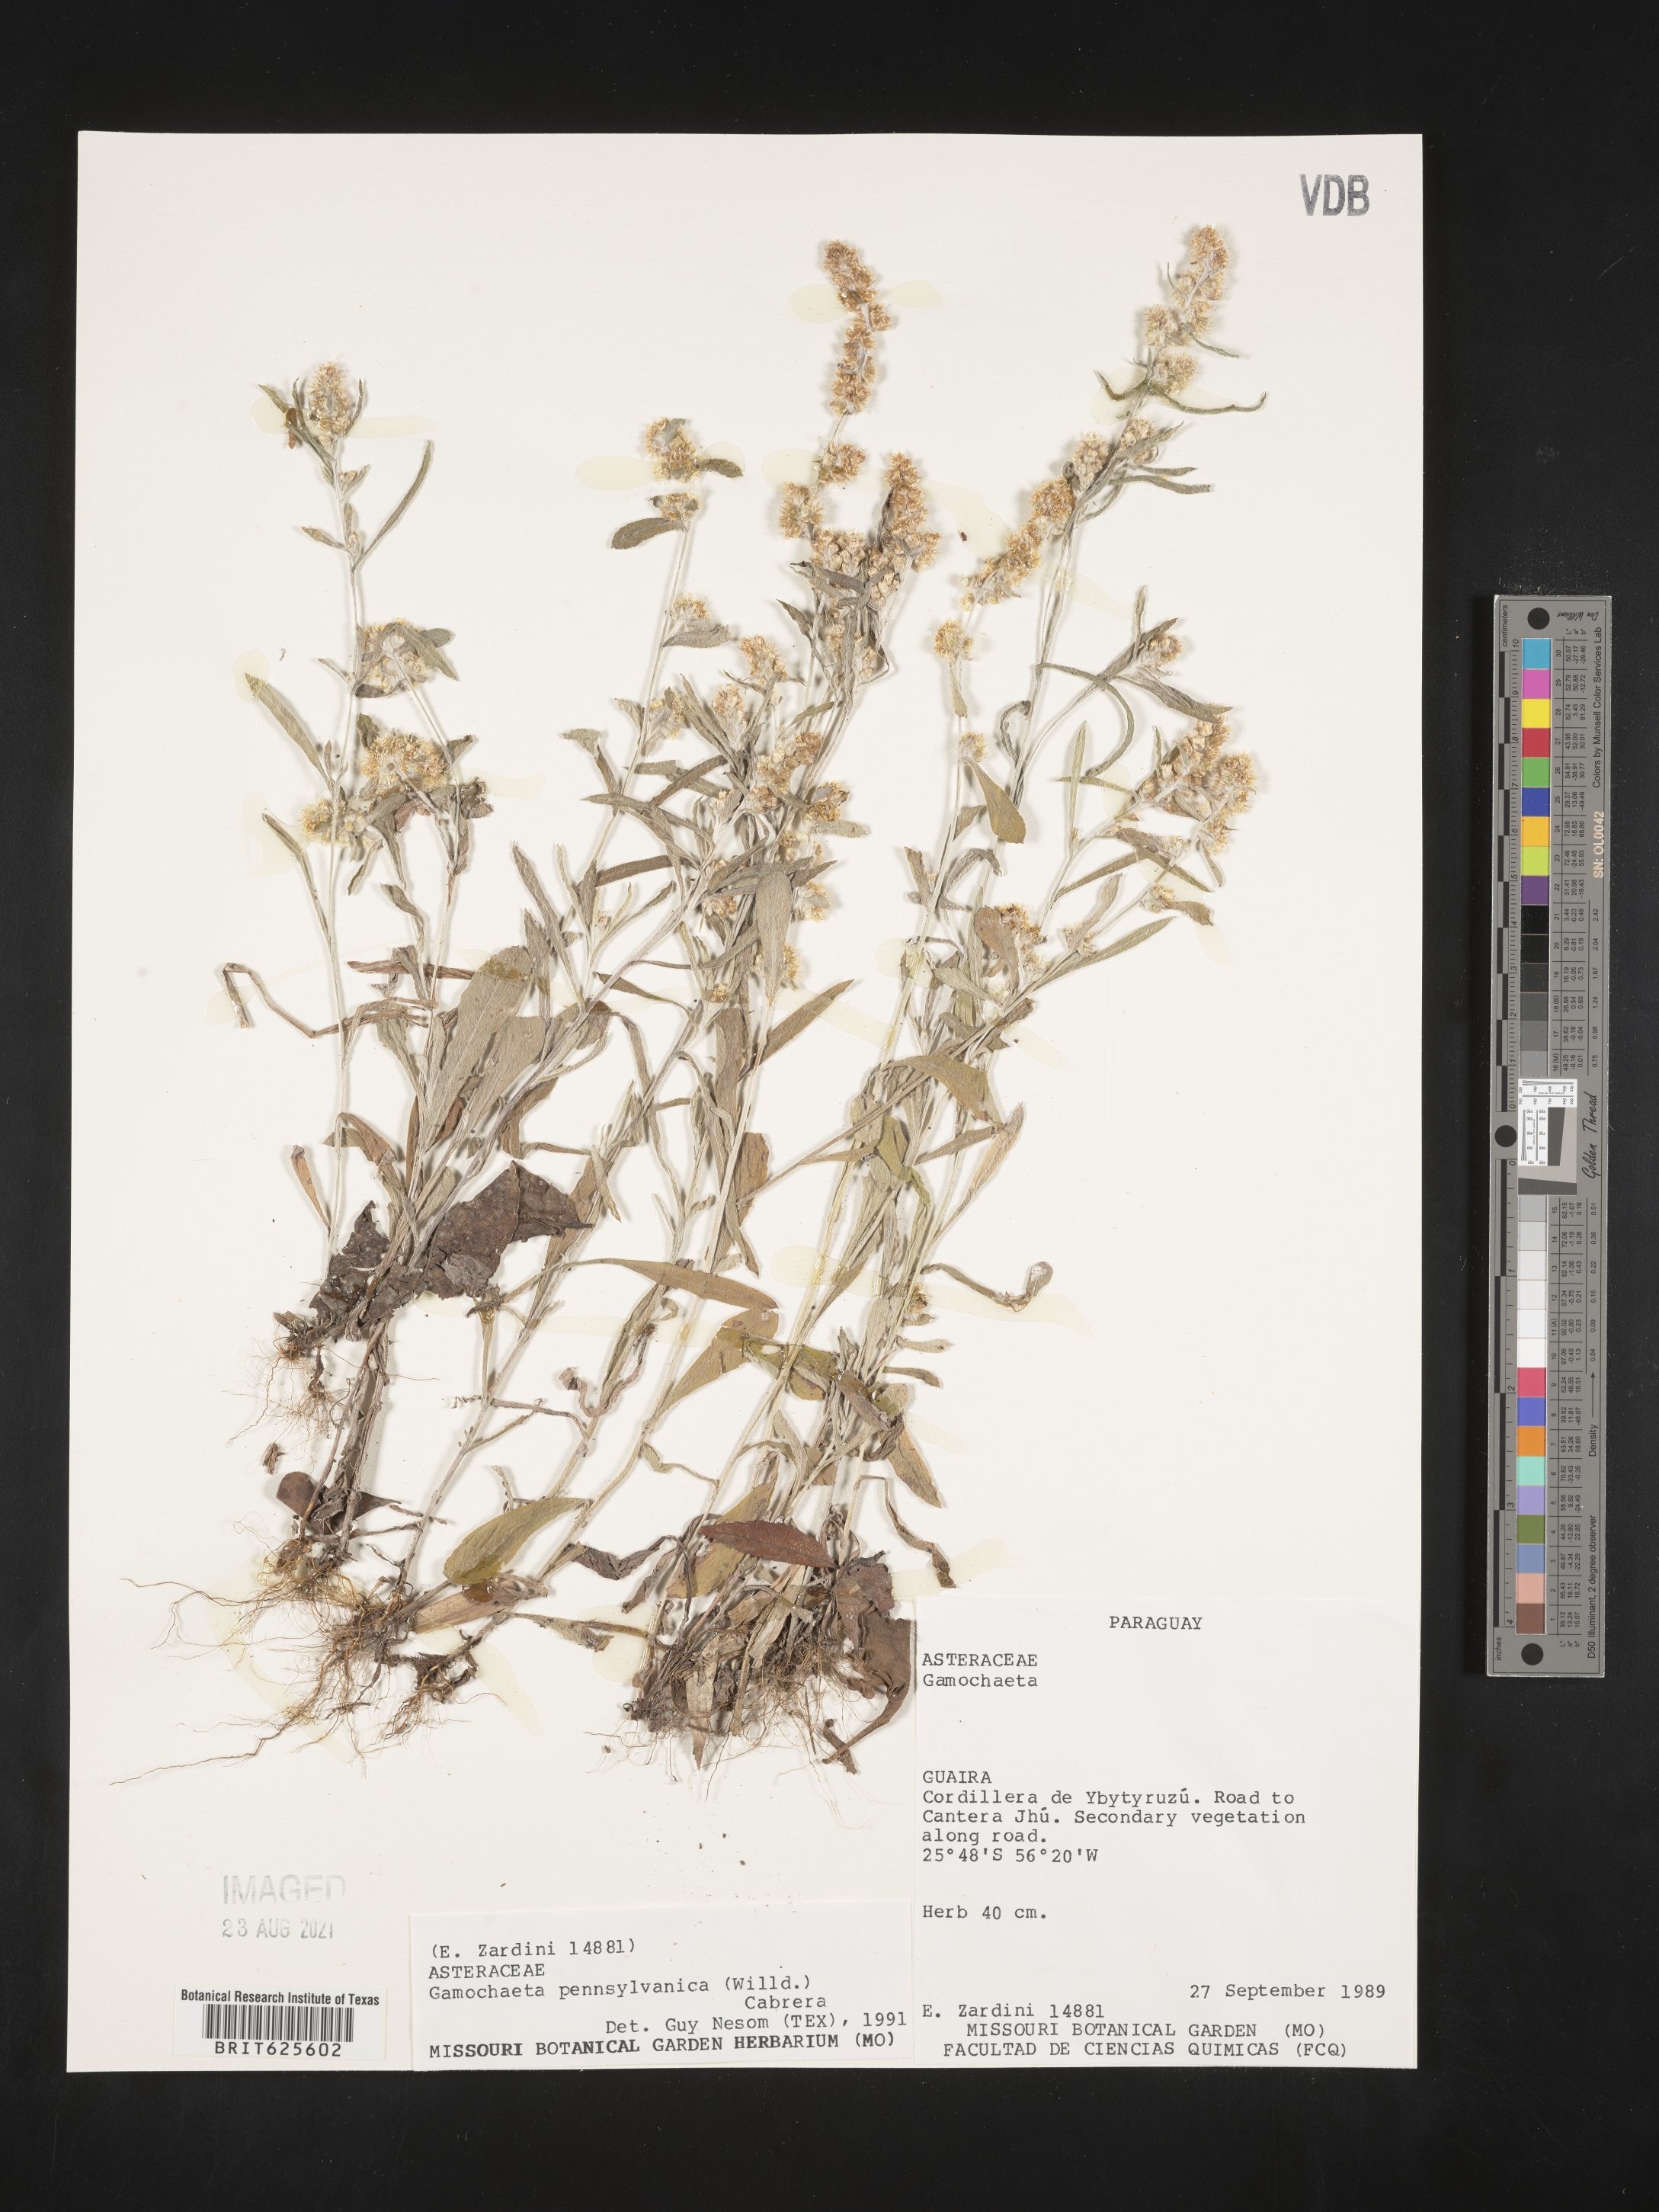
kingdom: Plantae
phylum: Tracheophyta
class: Magnoliopsida
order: Asterales
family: Asteraceae
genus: Gamochaeta
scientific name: Gamochaeta pensylvanica
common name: Pennsylvania everlasting
